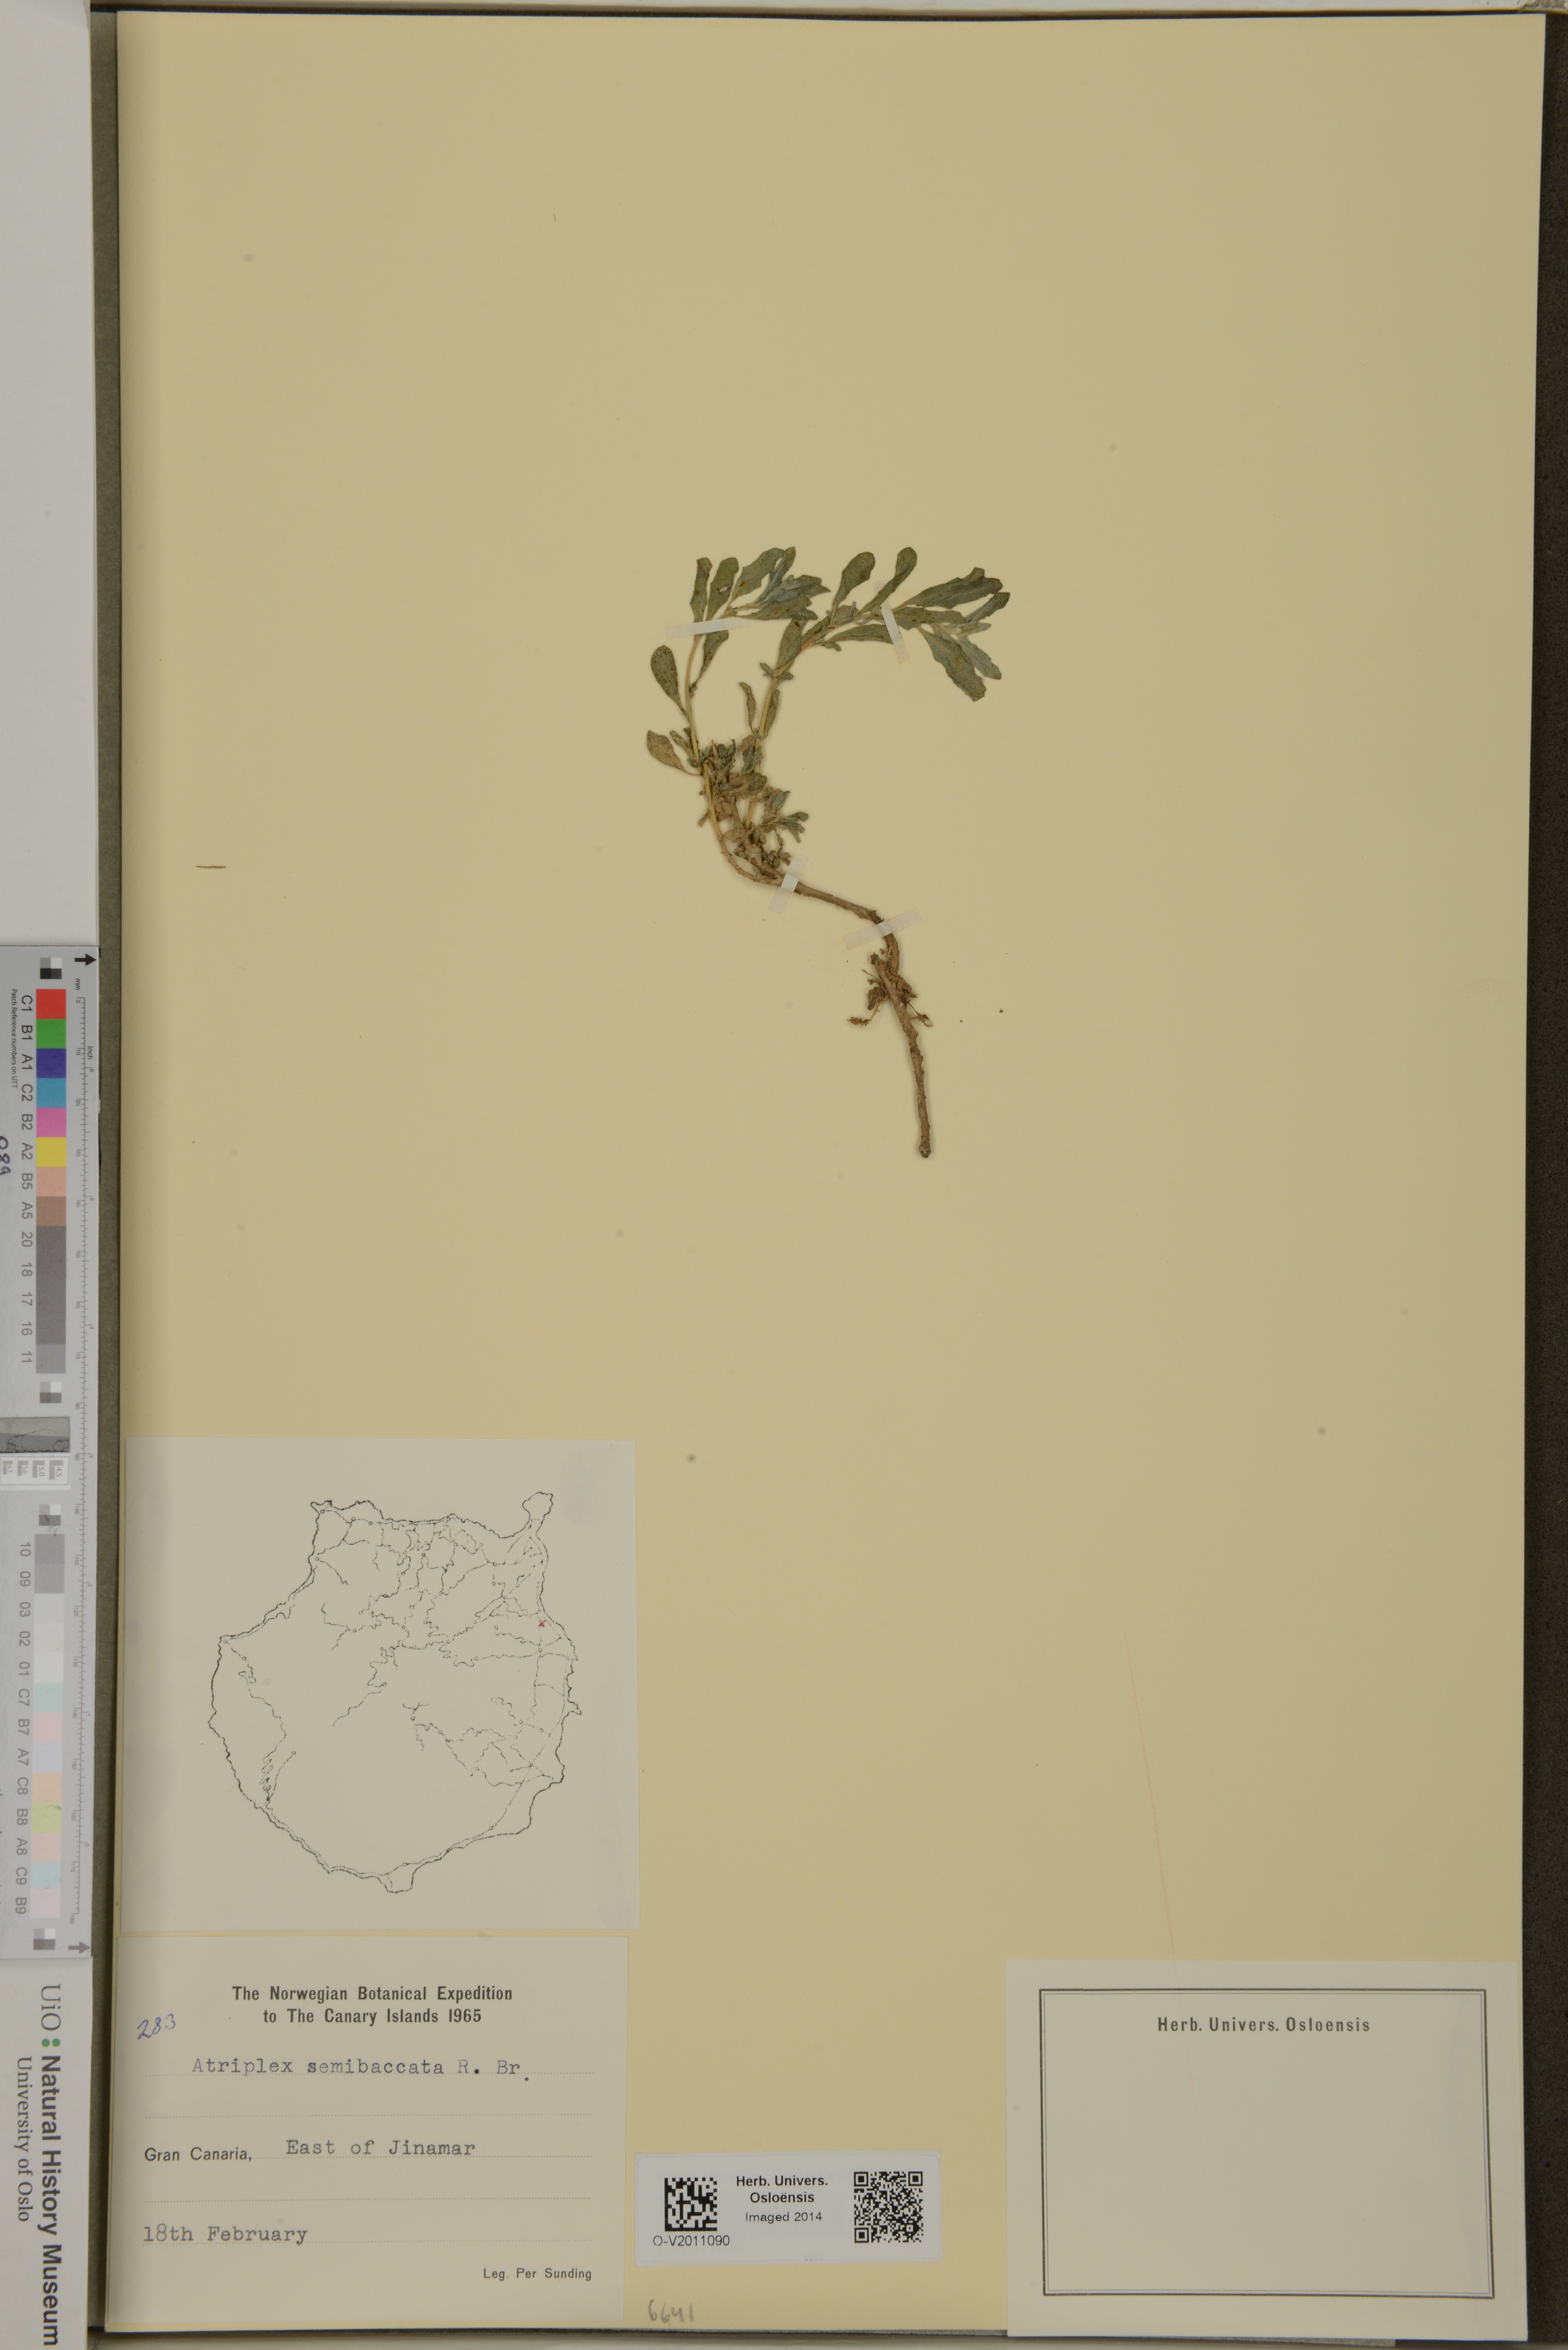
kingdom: Plantae
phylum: Tracheophyta
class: Magnoliopsida
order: Caryophyllales
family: Amaranthaceae
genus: Atriplex
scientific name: Atriplex semibaccata
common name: Australian saltbush
